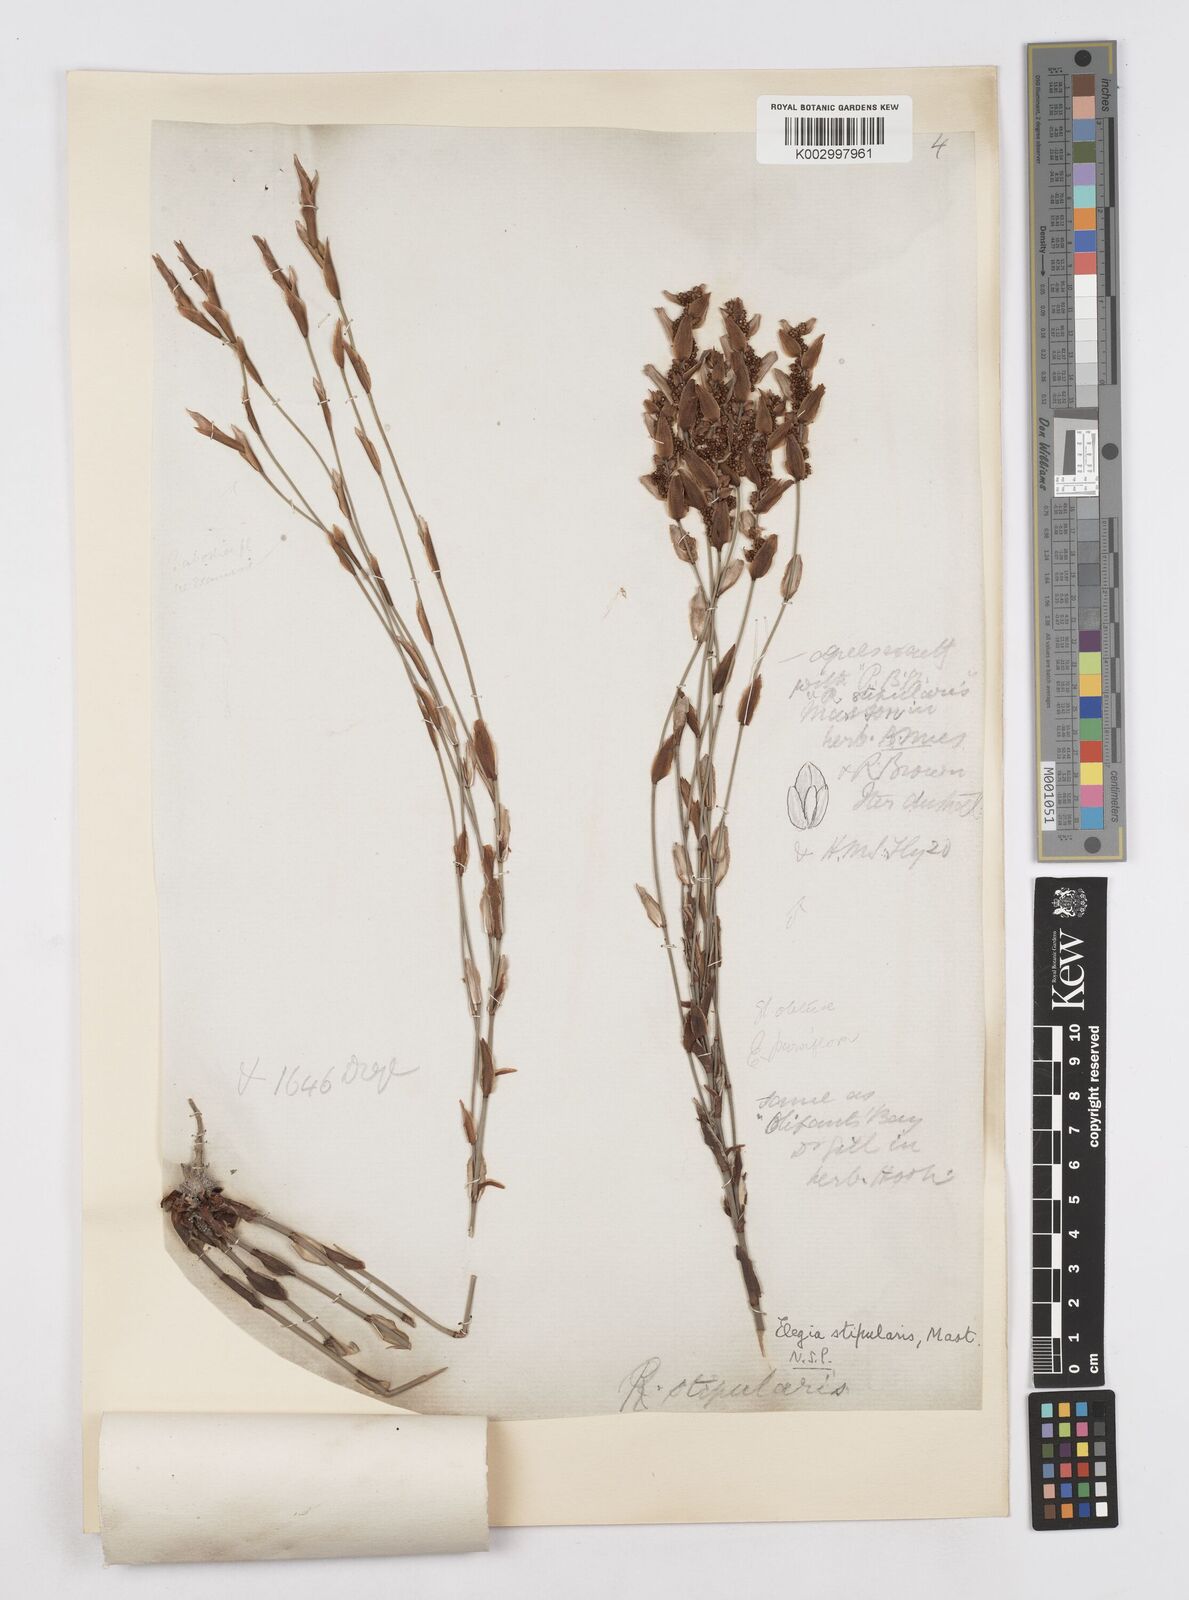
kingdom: Plantae
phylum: Tracheophyta
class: Liliopsida
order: Poales
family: Restionaceae
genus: Elegia
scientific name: Elegia stipularis
